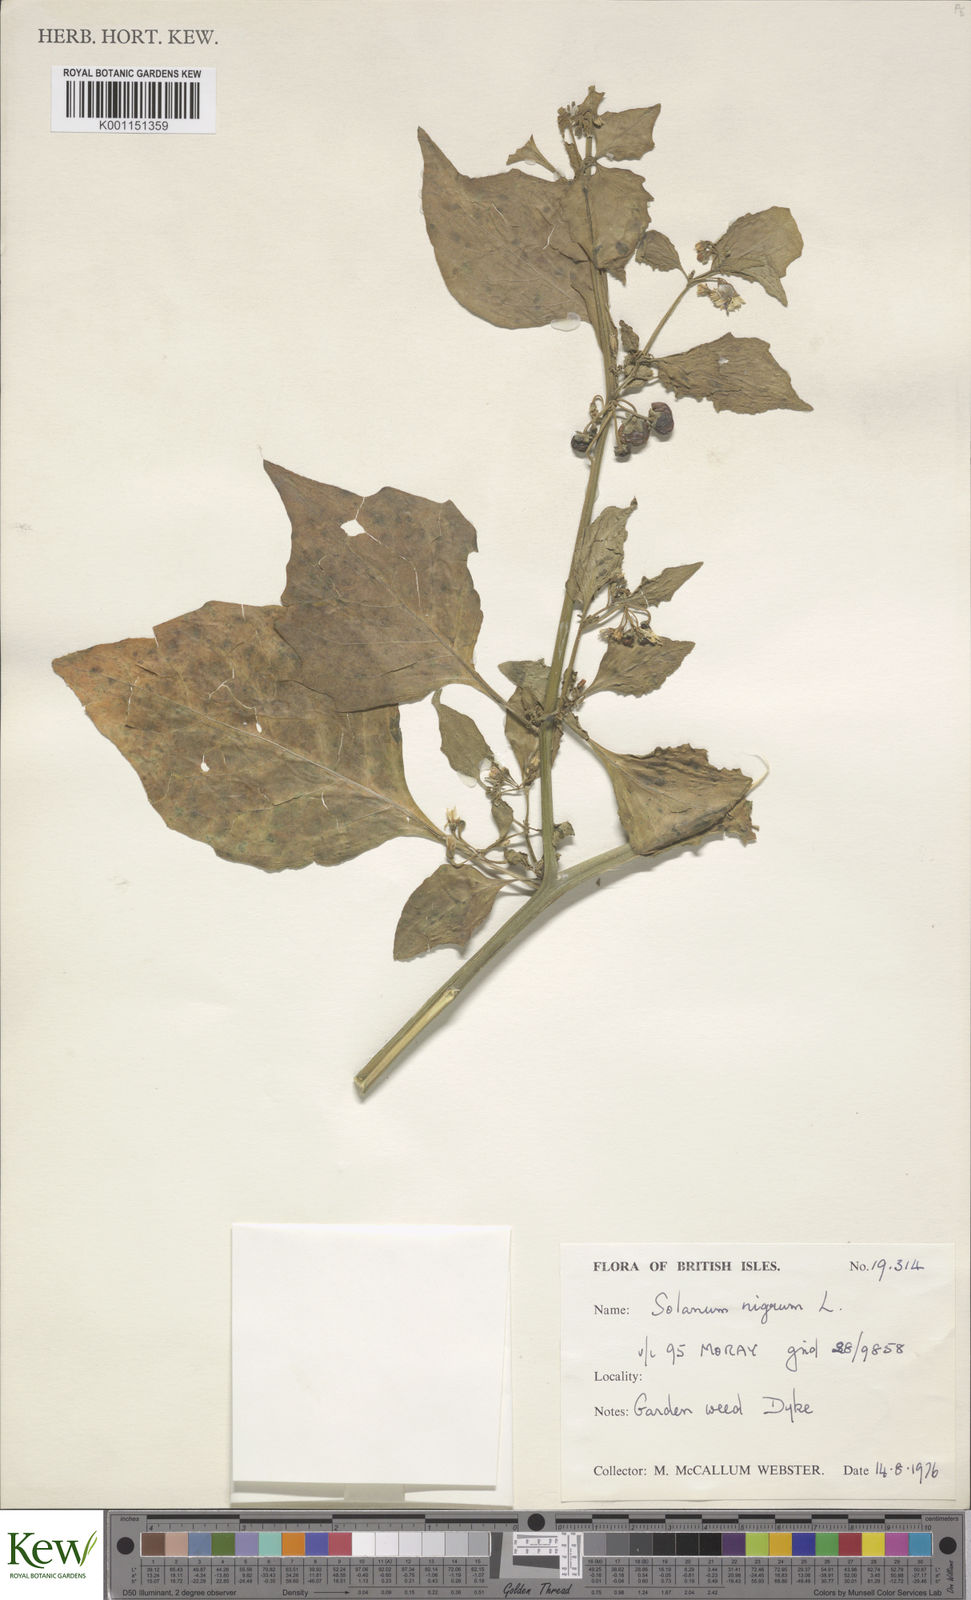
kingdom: Plantae
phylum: Tracheophyta
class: Magnoliopsida
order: Solanales
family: Solanaceae
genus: Solanum
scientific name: Solanum nigrum
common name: Black nightshade
